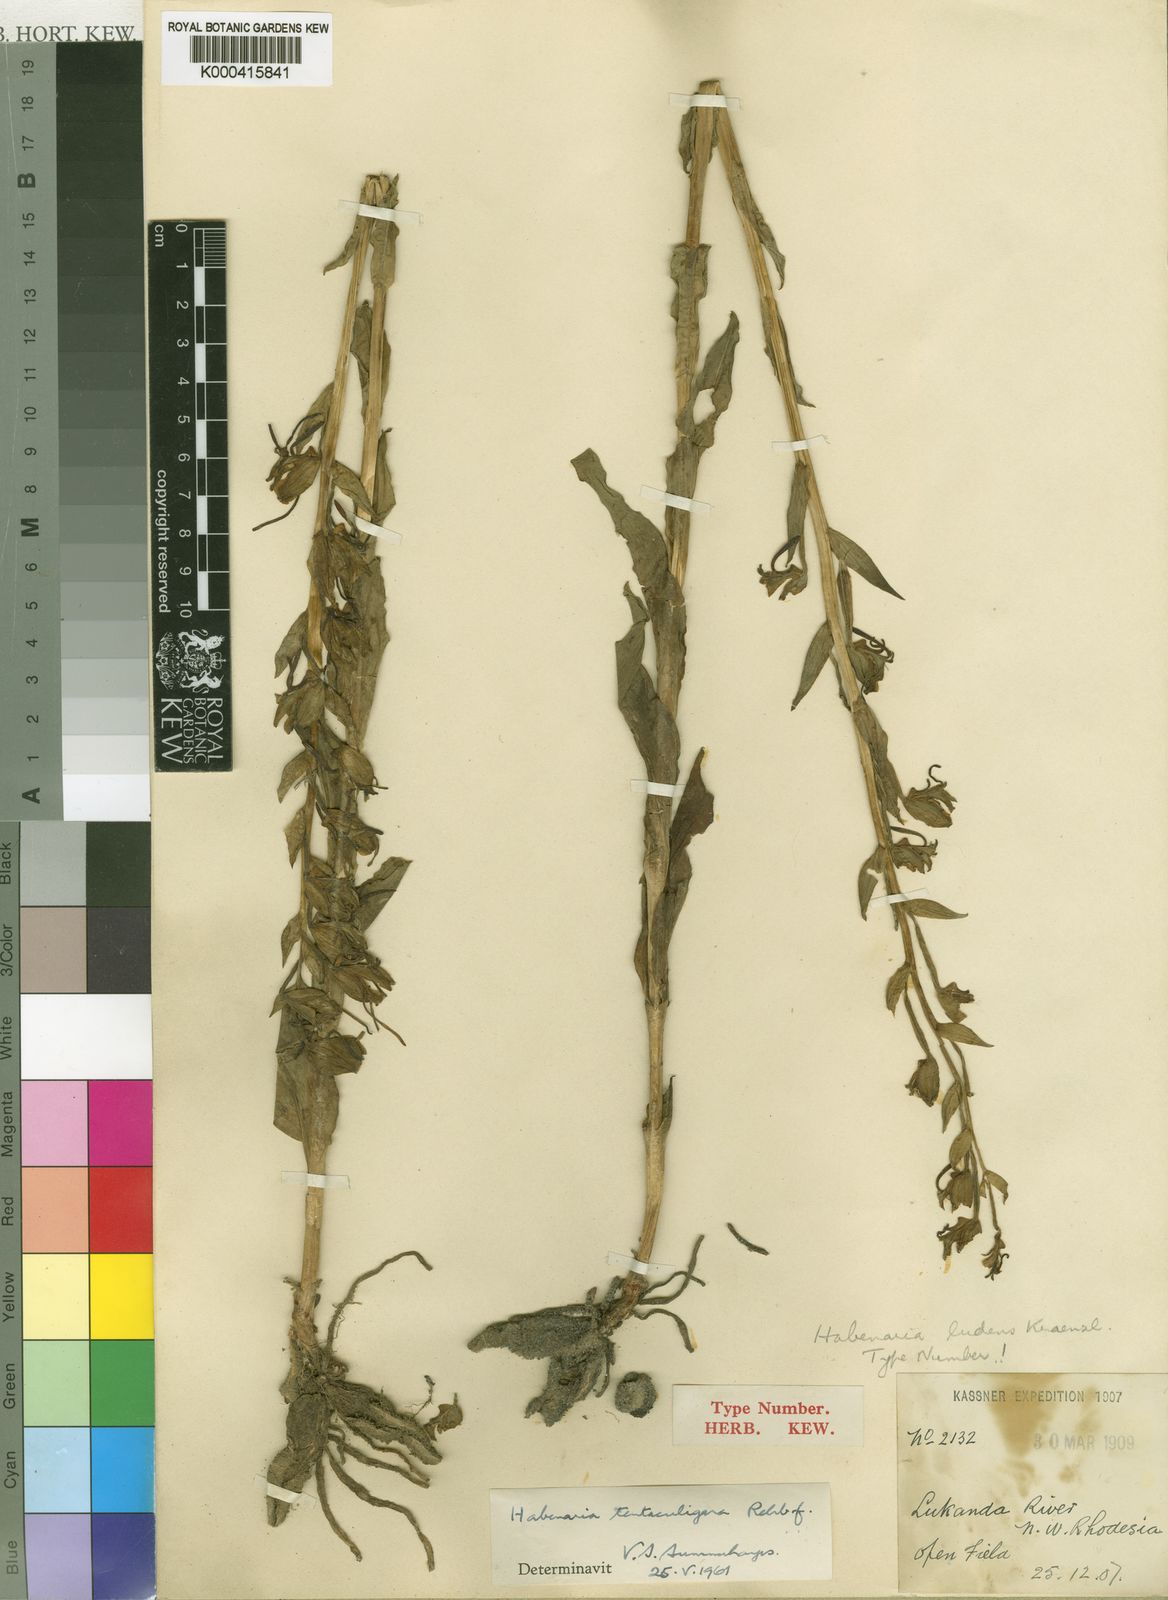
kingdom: Plantae
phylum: Tracheophyta
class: Liliopsida
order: Asparagales
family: Orchidaceae
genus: Habenaria
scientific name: Habenaria tentaculigera
